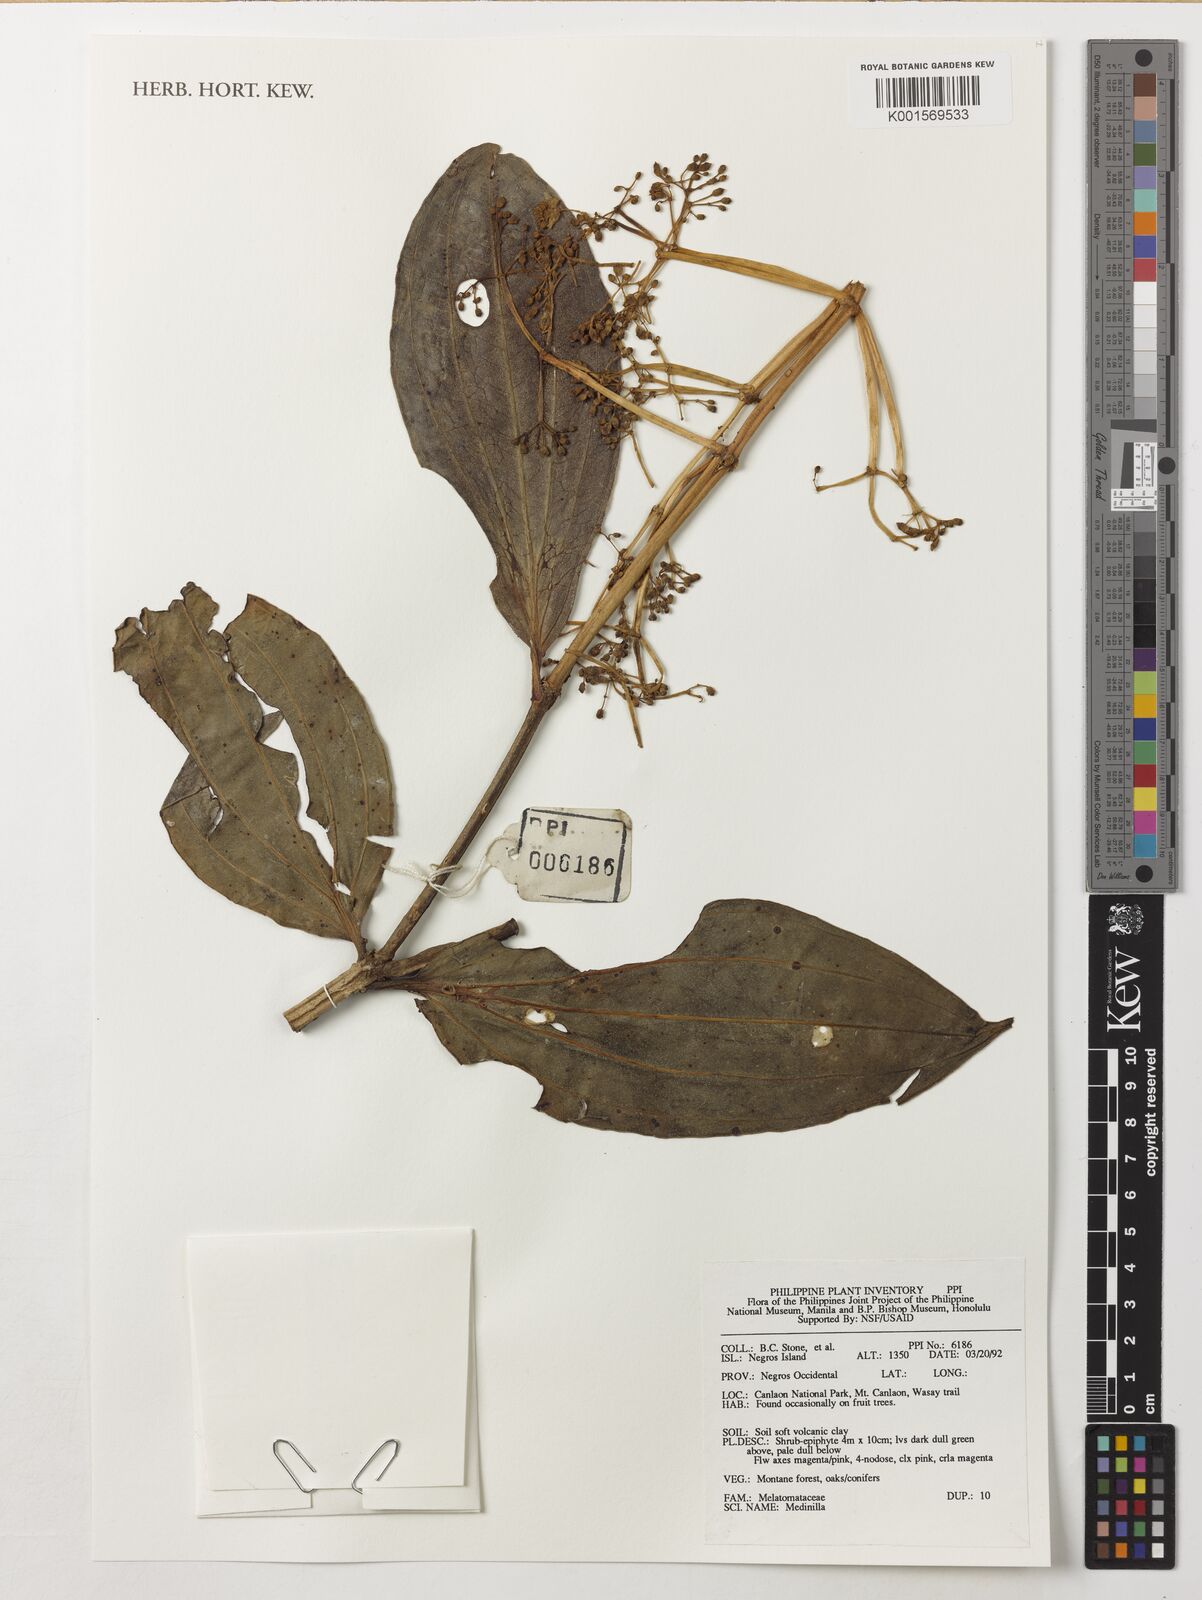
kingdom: Plantae
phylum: Tracheophyta
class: Magnoliopsida
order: Myrtales
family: Melastomataceae
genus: Medinilla
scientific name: Medinilla
